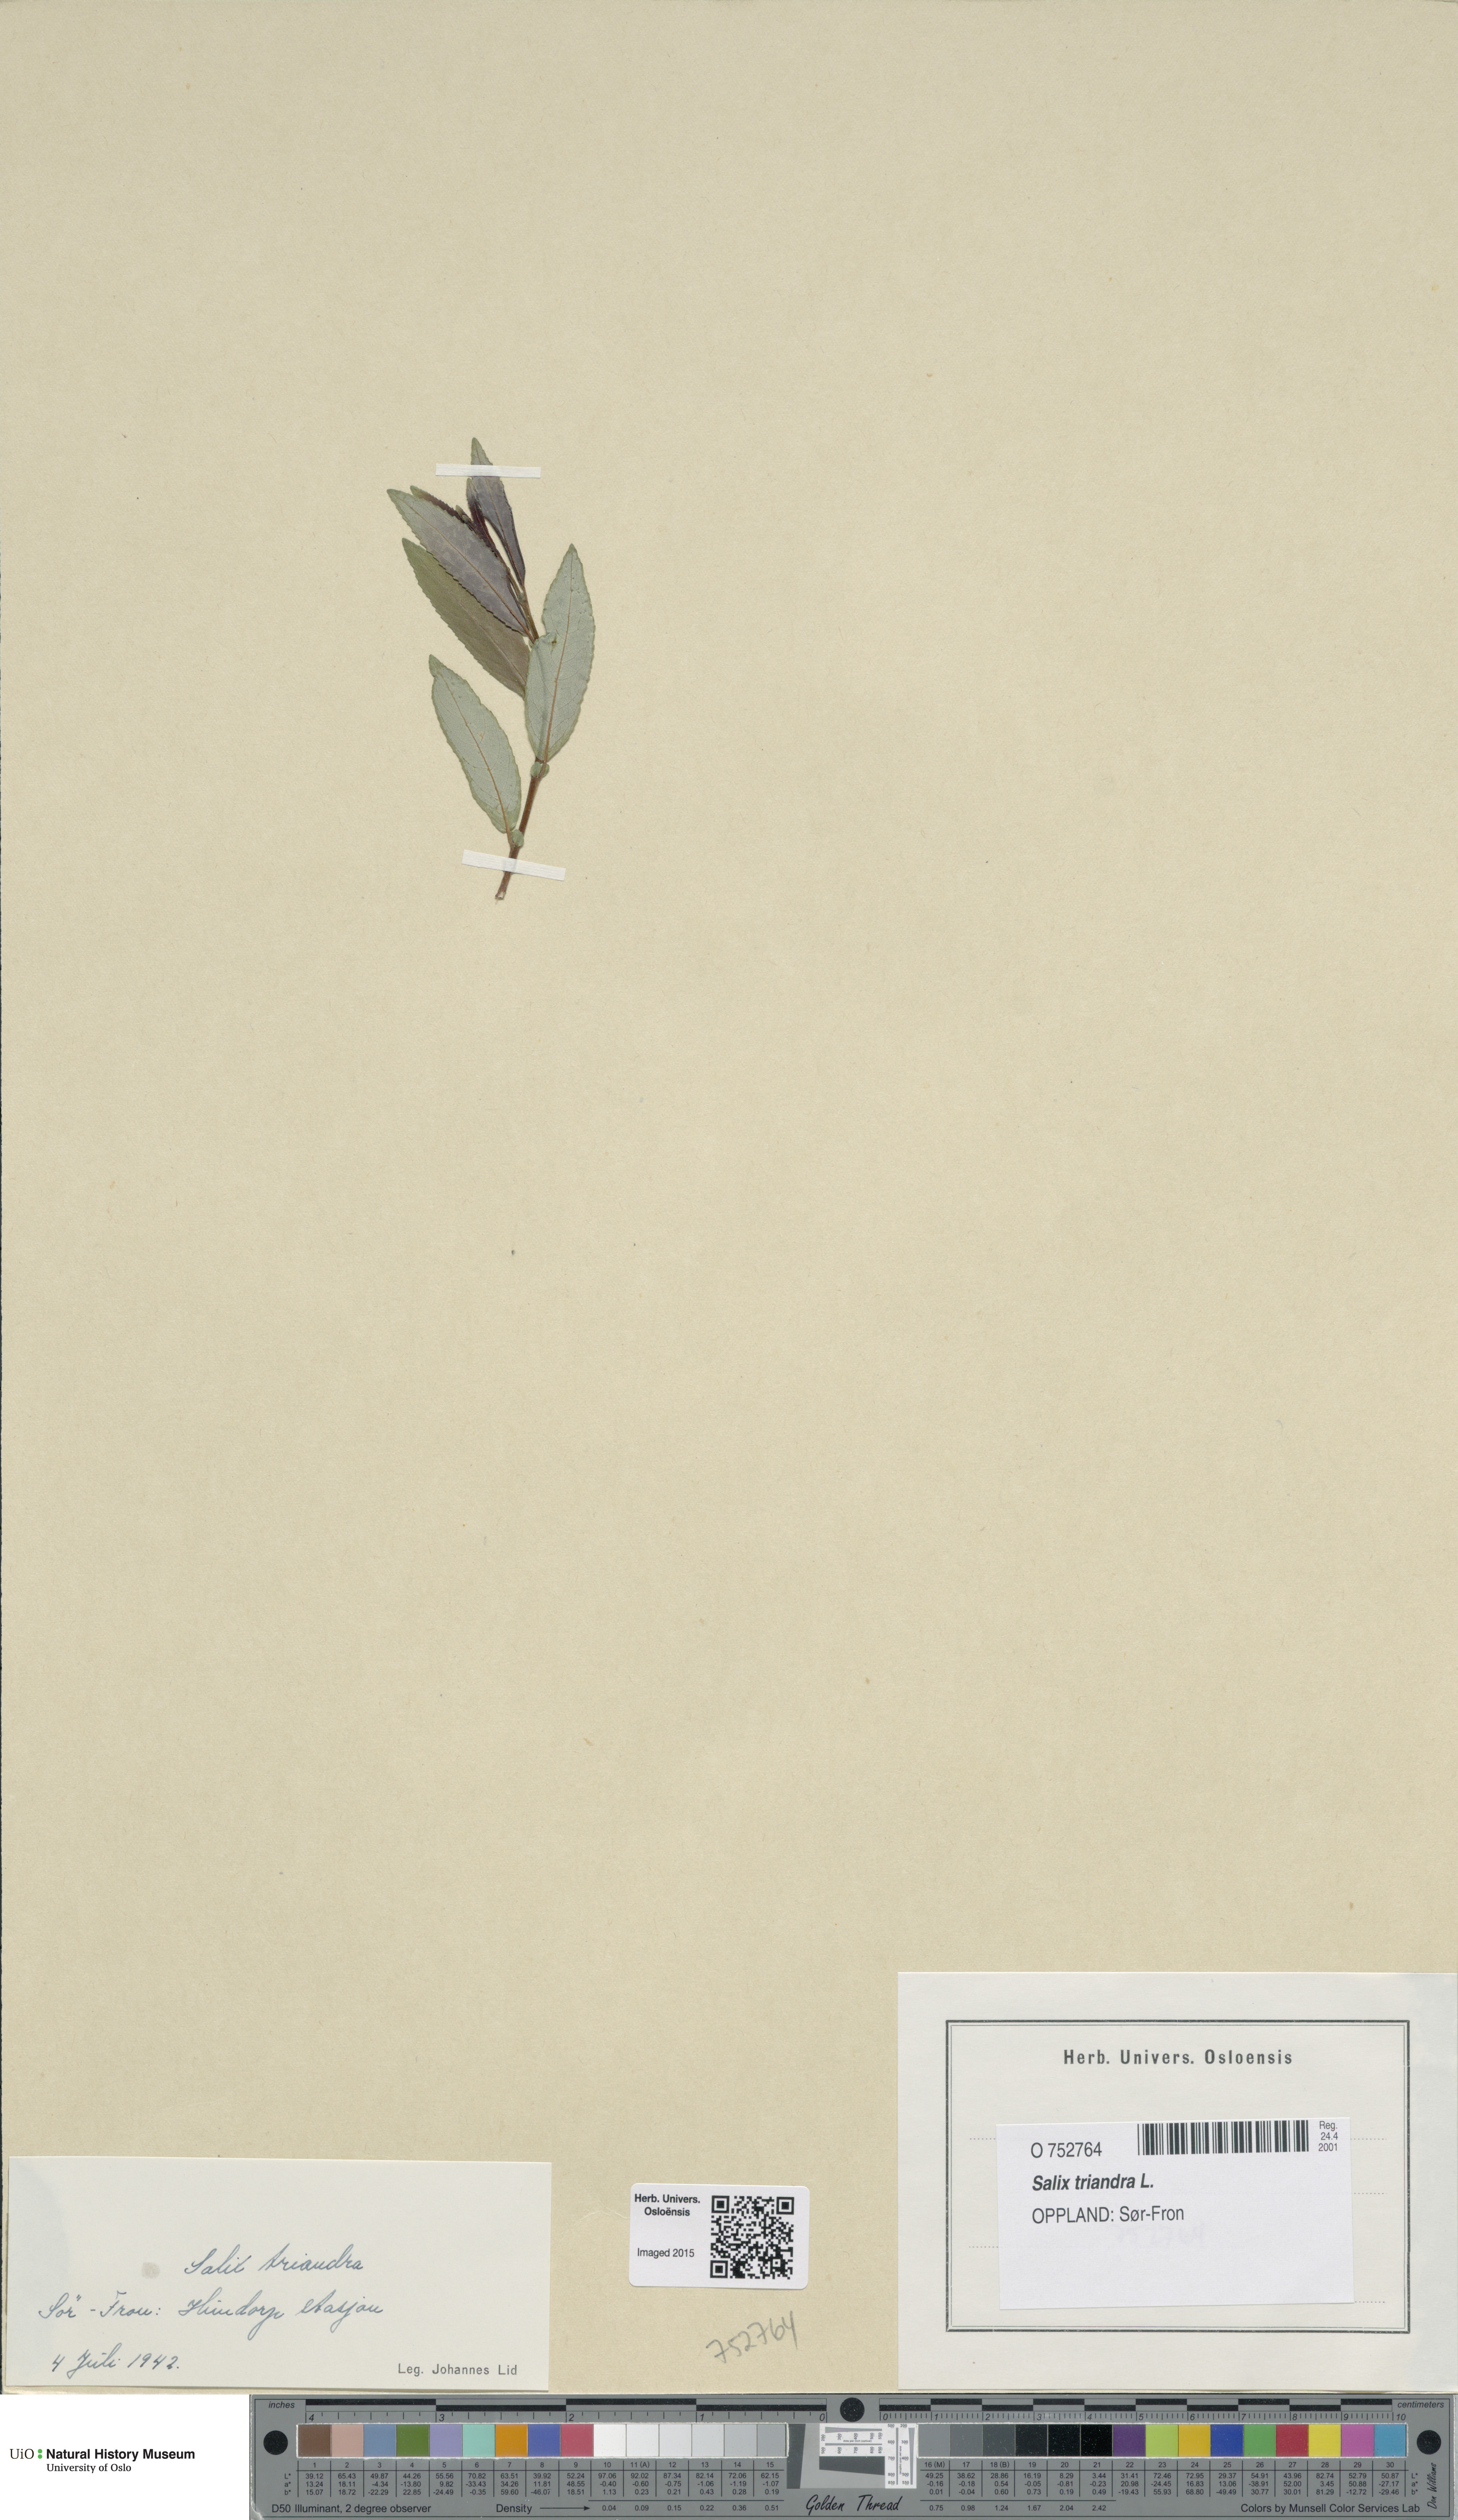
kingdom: Plantae
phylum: Tracheophyta
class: Magnoliopsida
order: Malpighiales
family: Salicaceae
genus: Salix
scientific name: Salix triandra
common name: Almond willow
